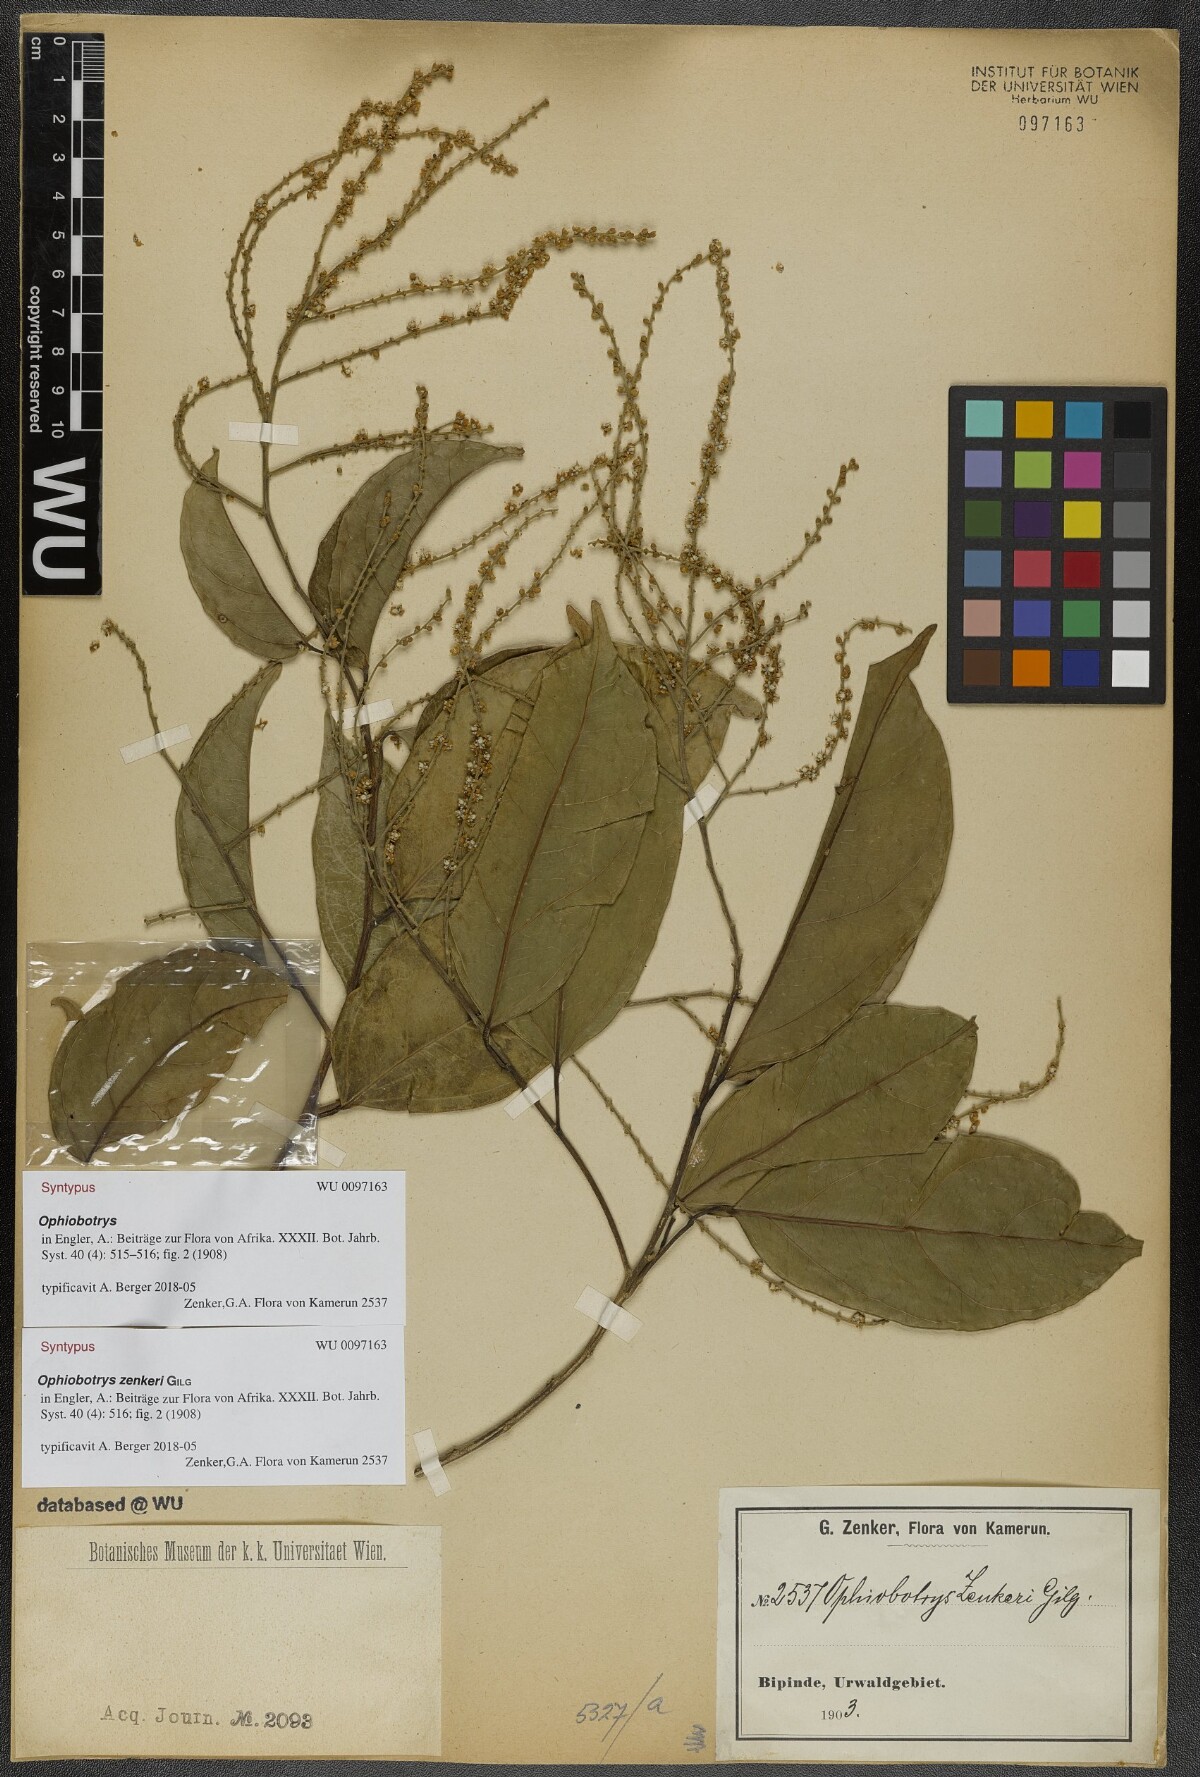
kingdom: Plantae
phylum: Tracheophyta
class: Magnoliopsida
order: Malpighiales
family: Salicaceae
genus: Ophiobotrys
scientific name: Ophiobotrys zenkeri
